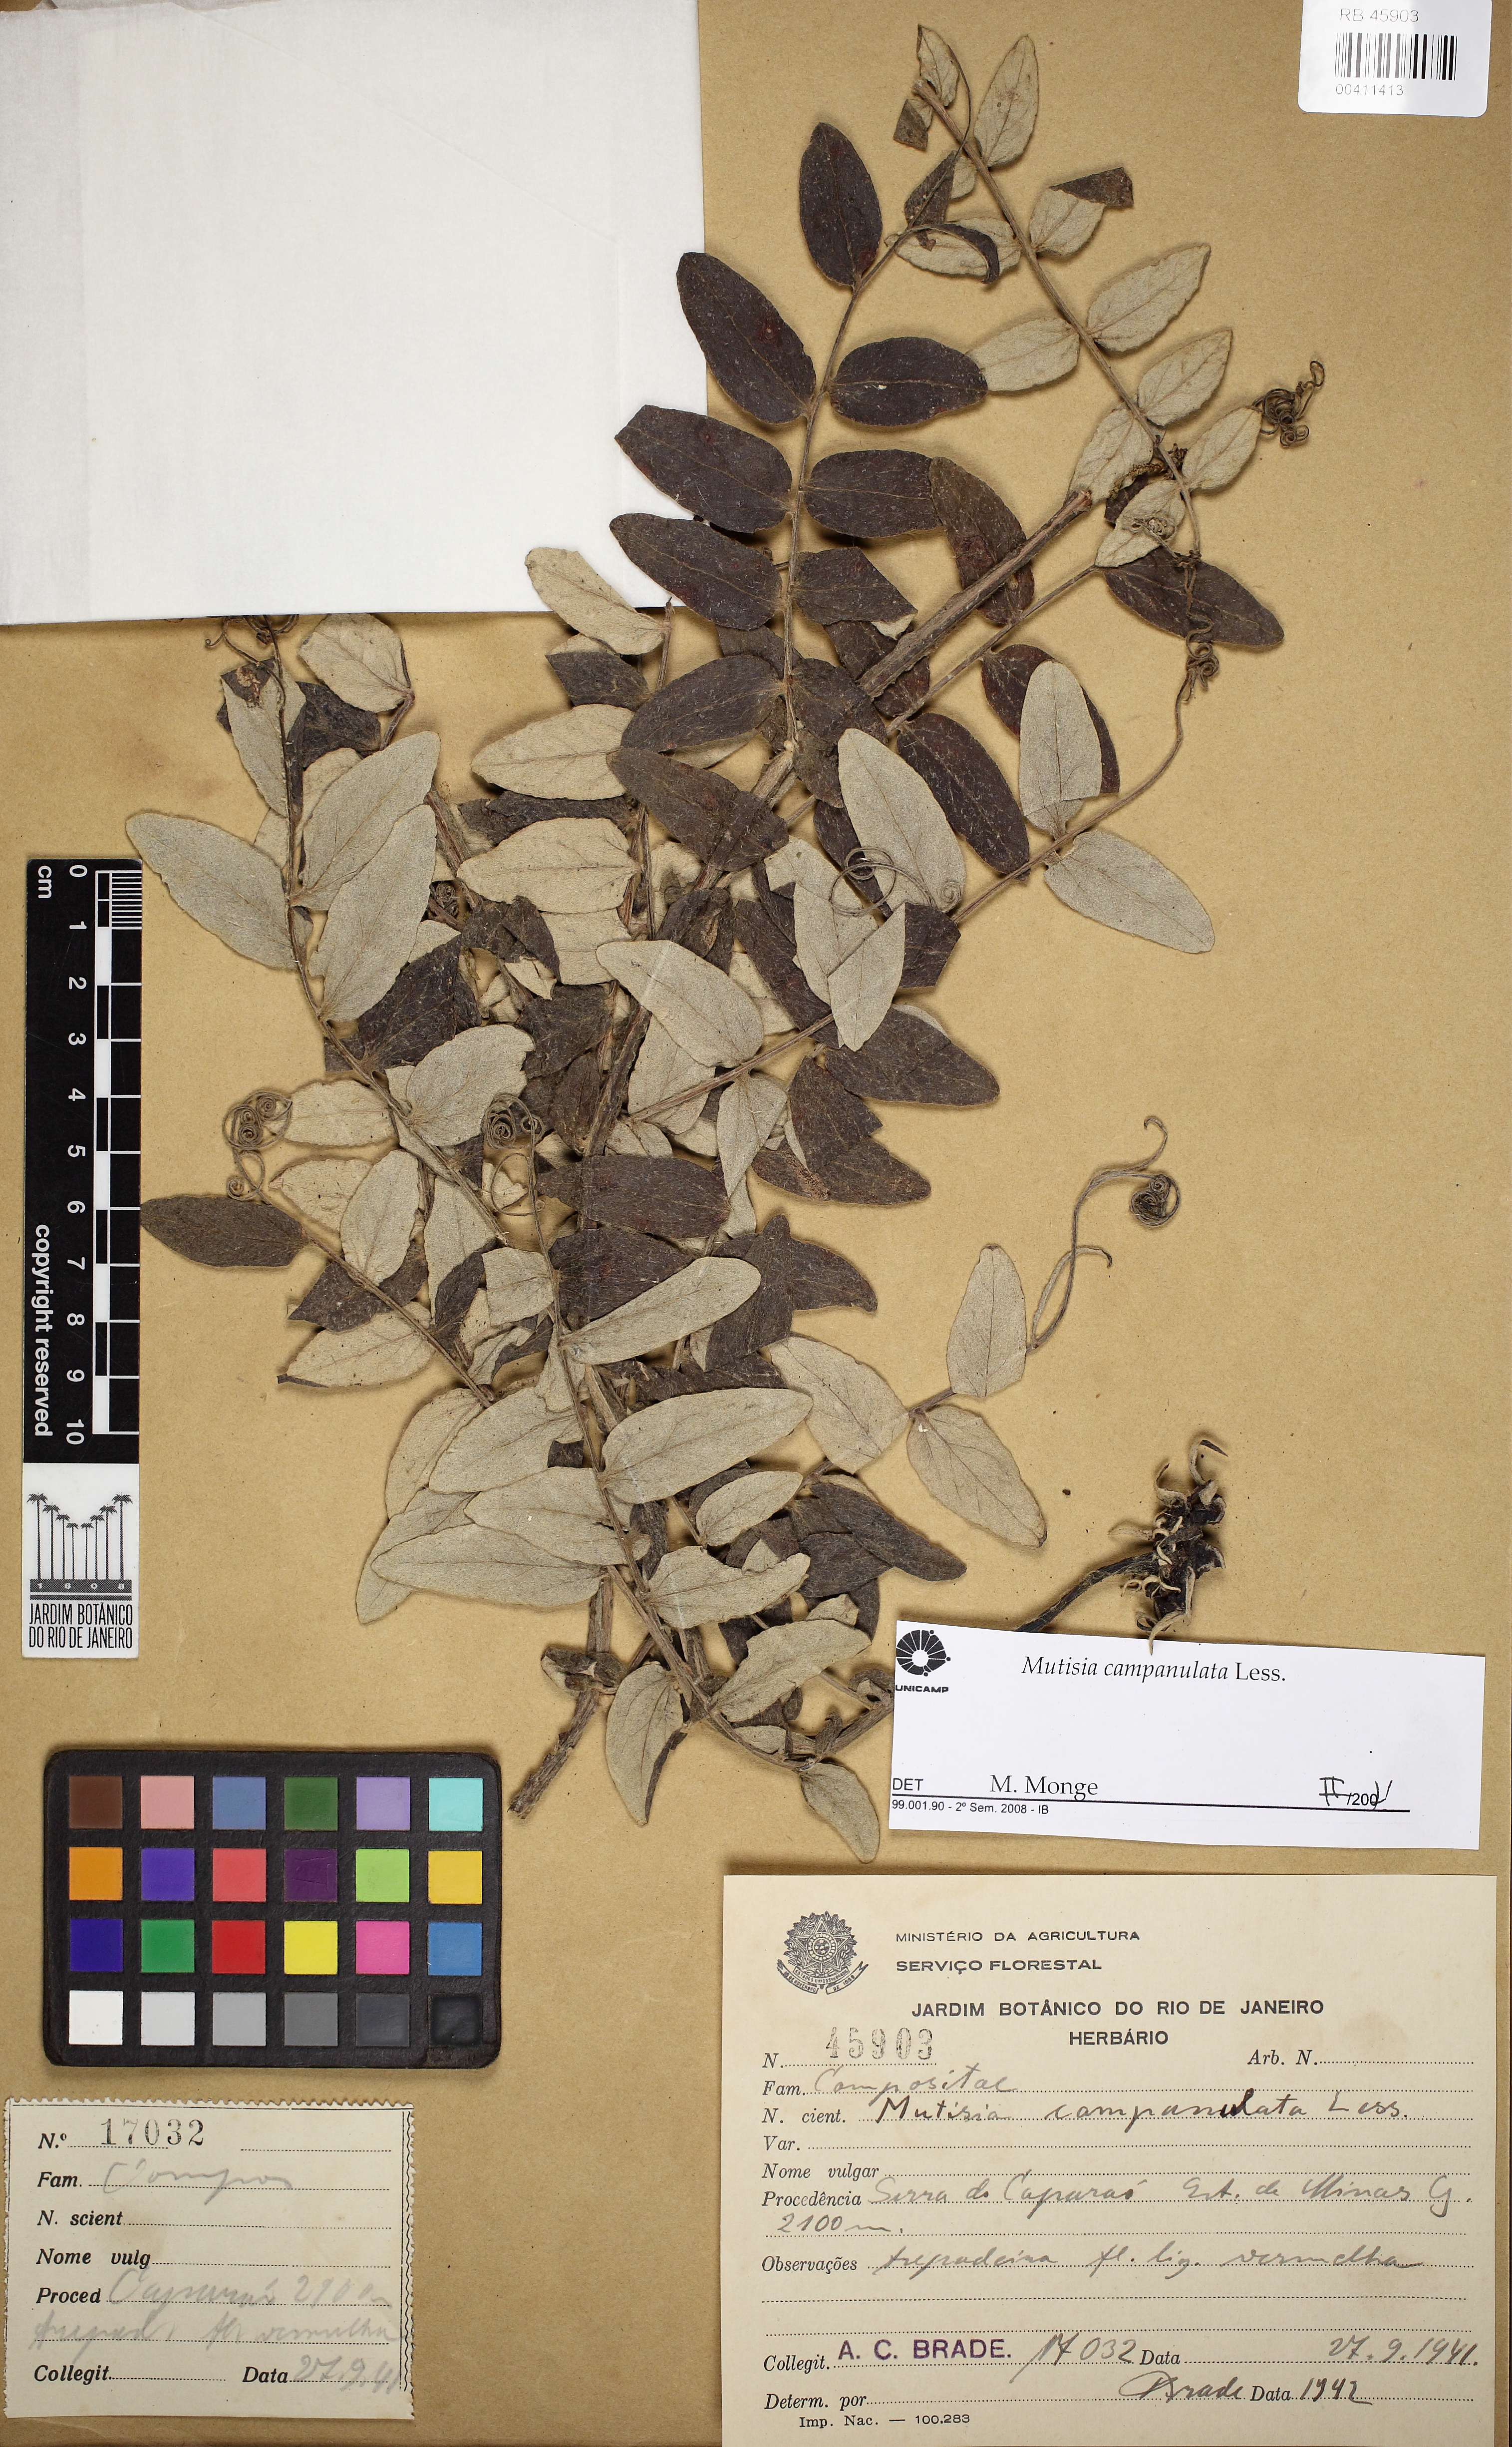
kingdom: Plantae
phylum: Tracheophyta
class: Magnoliopsida
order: Asterales
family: Asteraceae
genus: Mutisia
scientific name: Mutisia campanulata
